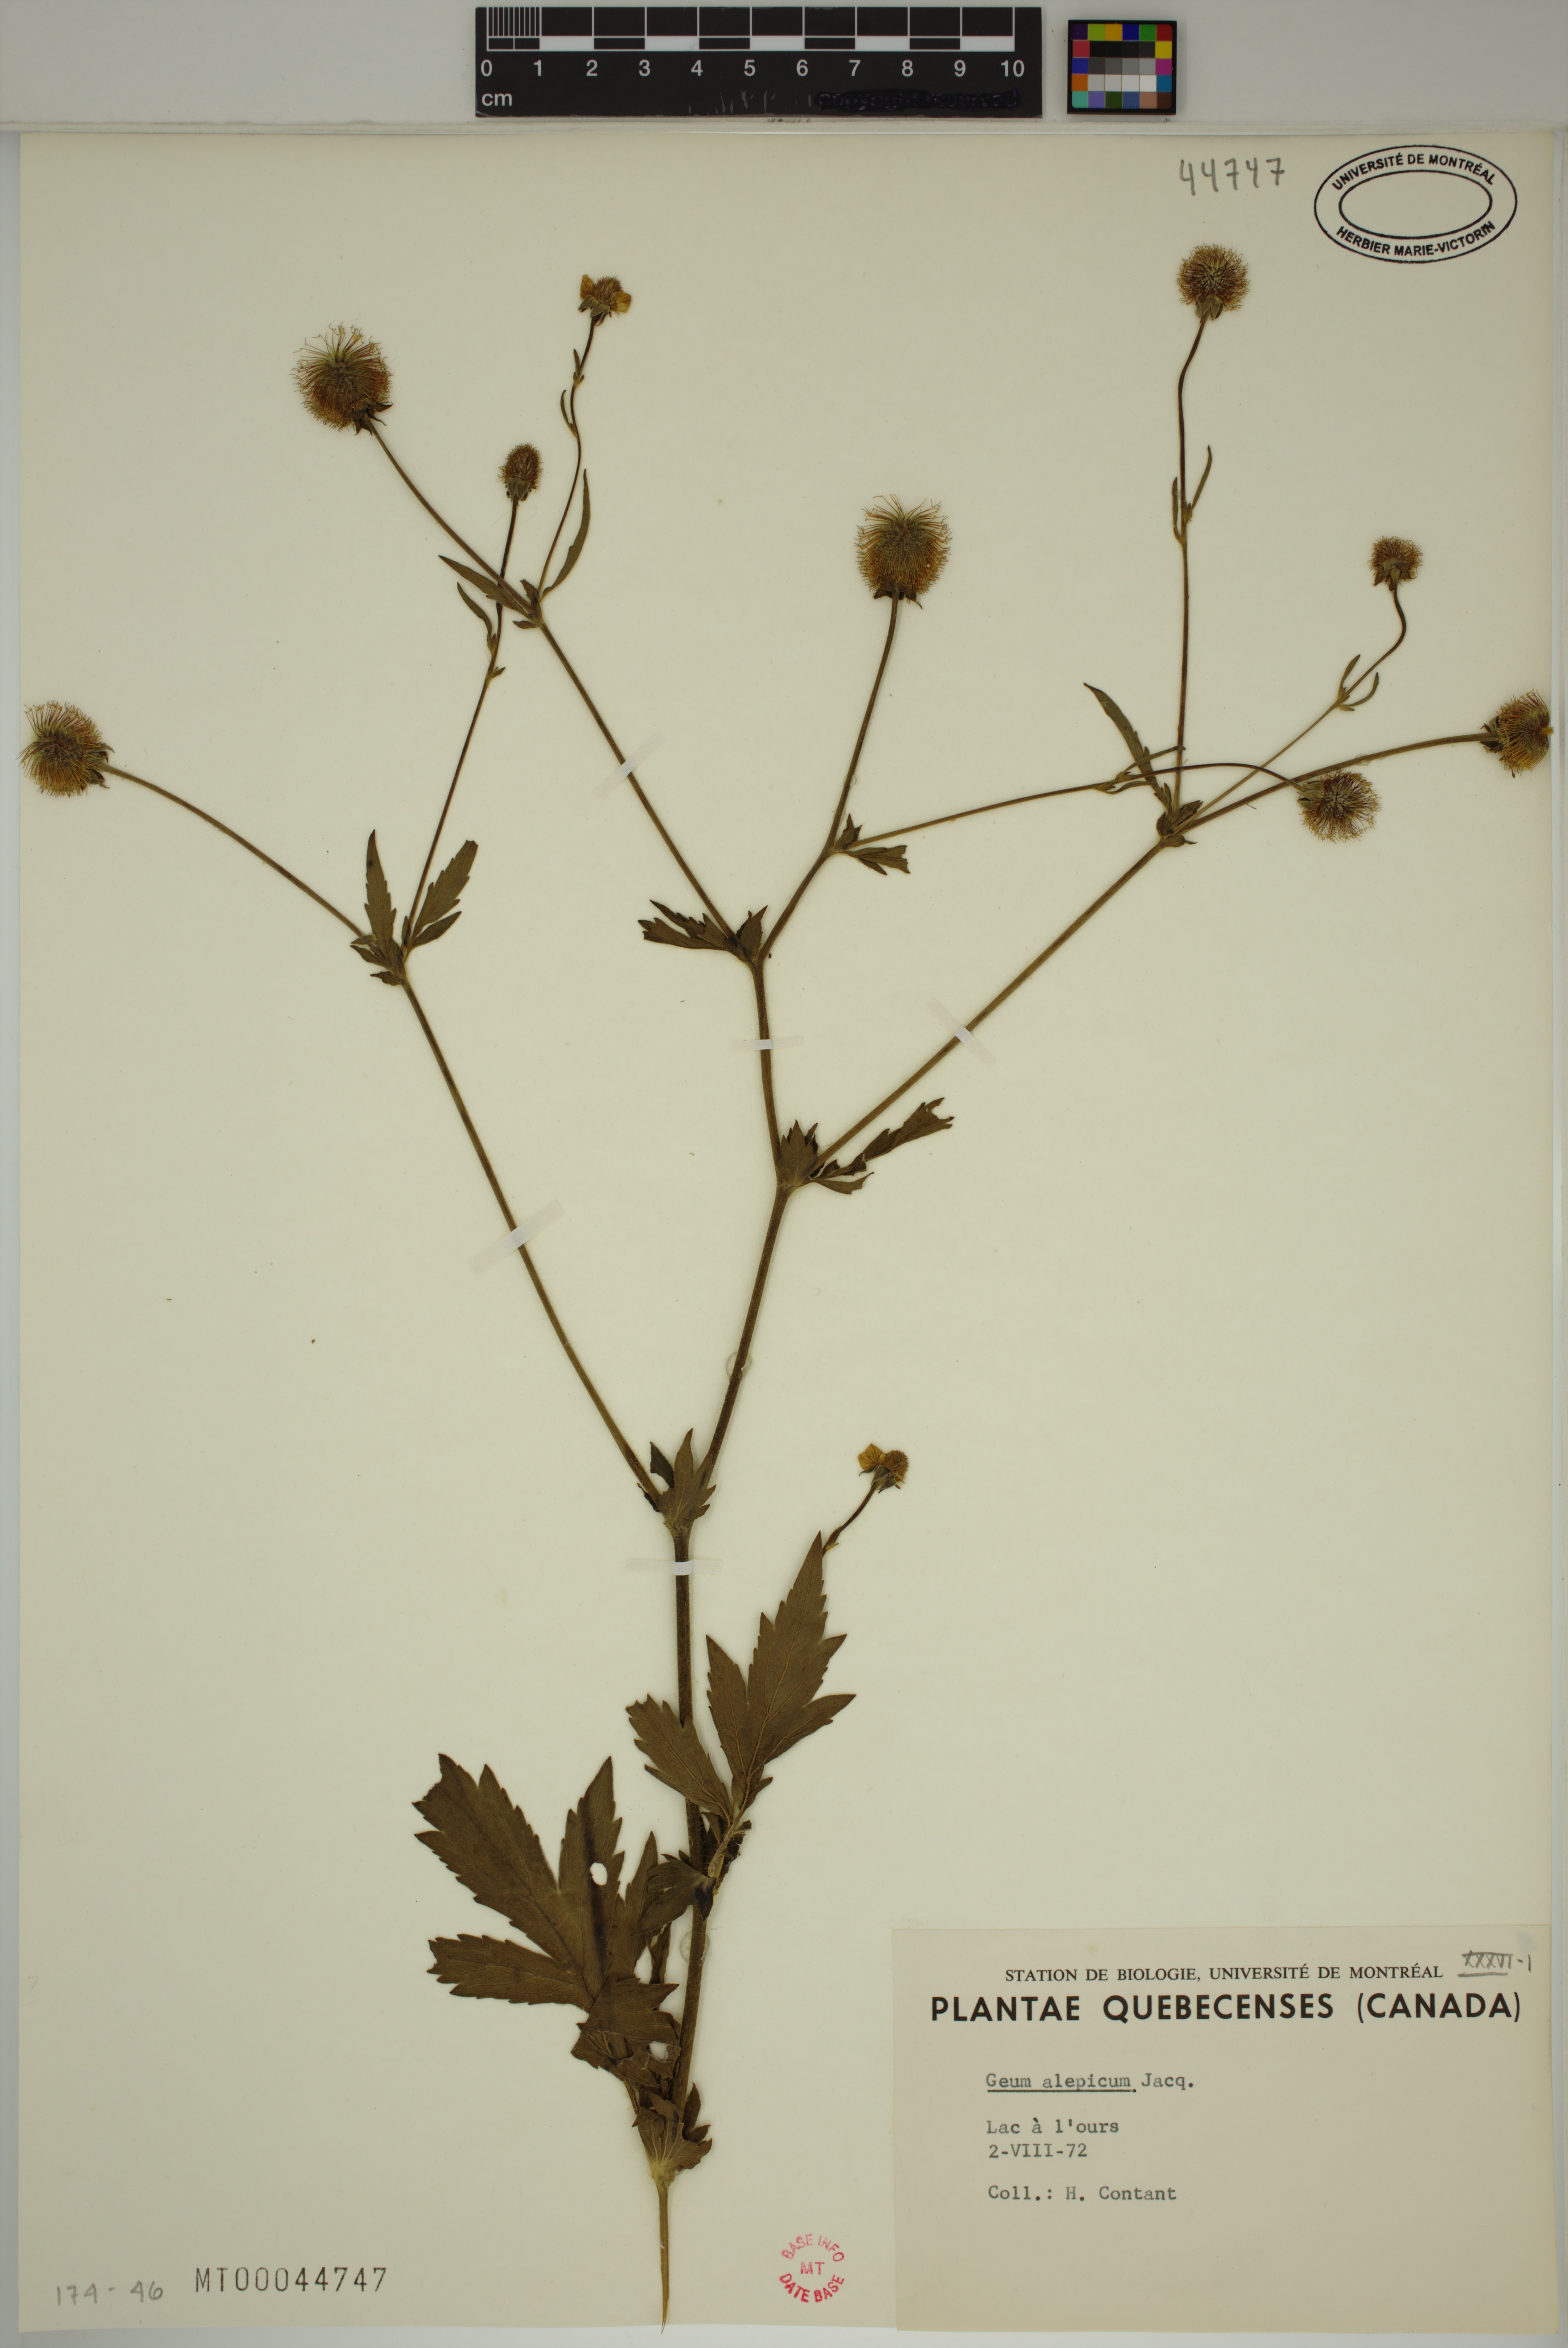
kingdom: Plantae
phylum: Tracheophyta
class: Magnoliopsida
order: Rosales
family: Rosaceae
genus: Geum
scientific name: Geum aleppicum
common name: Yellow avens
